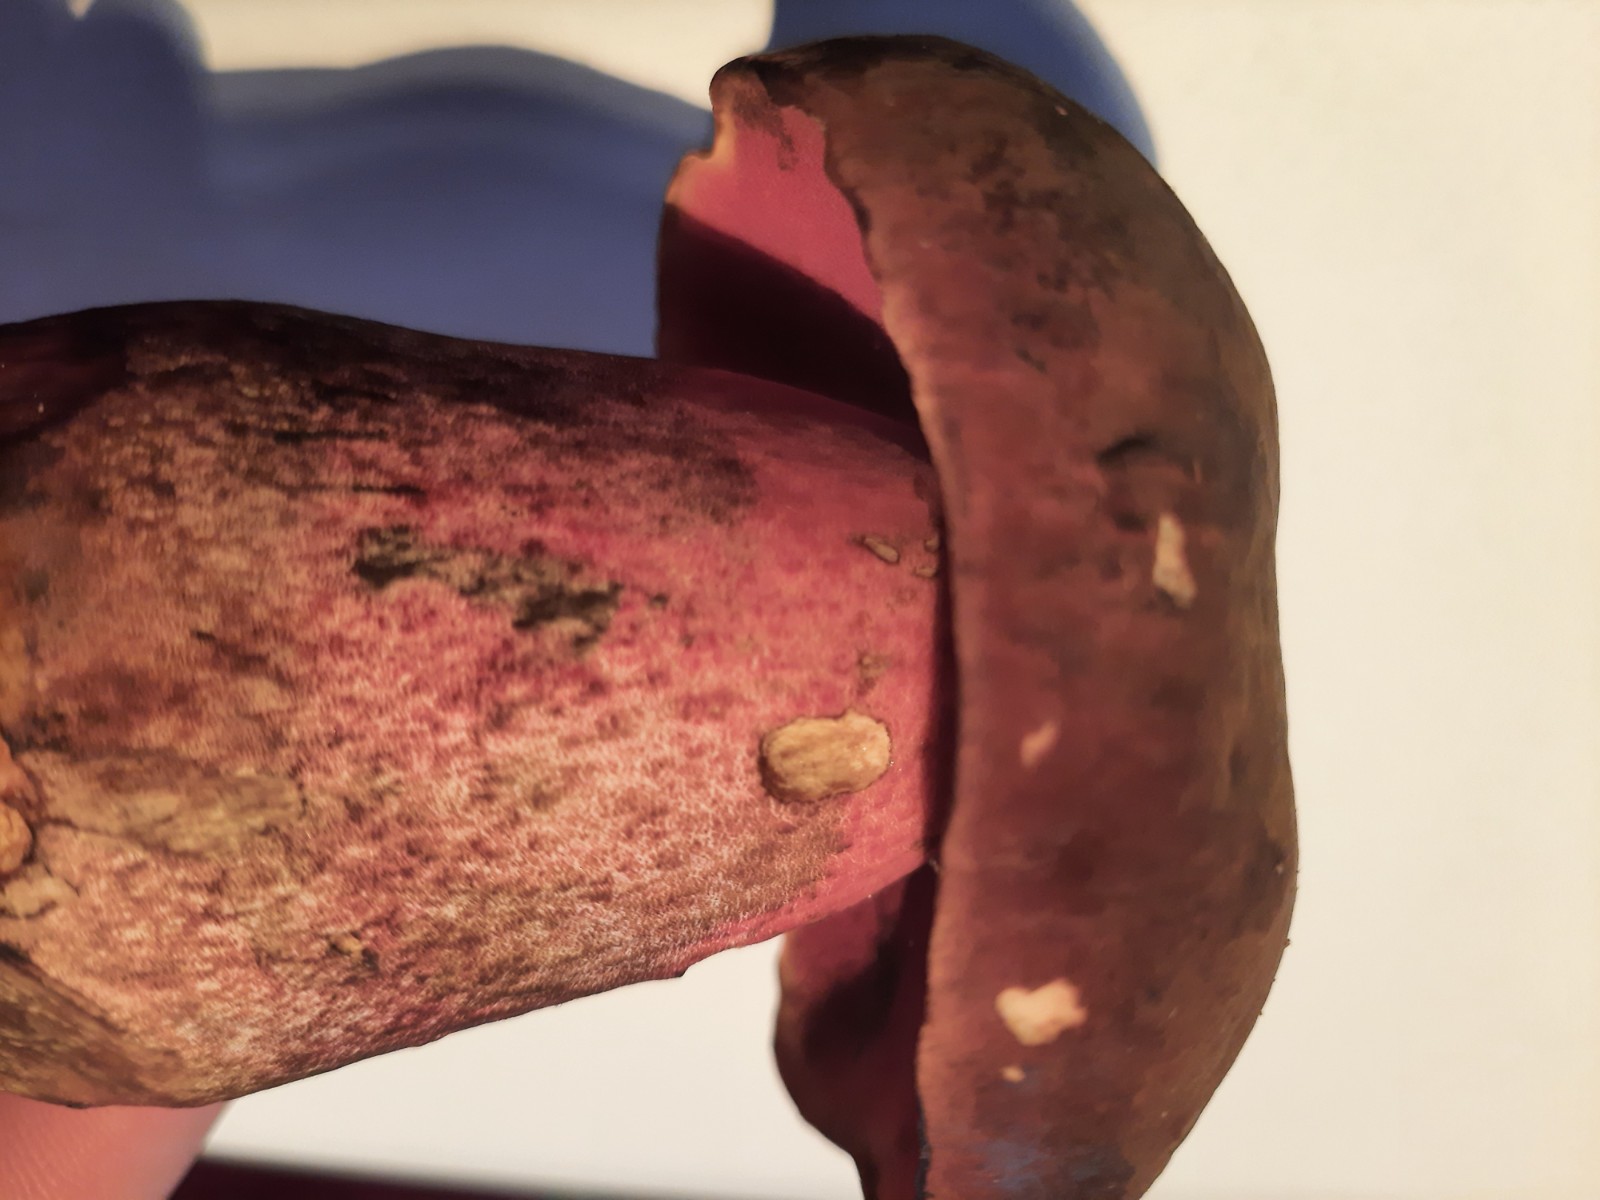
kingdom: Fungi
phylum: Basidiomycota
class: Agaricomycetes
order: Boletales
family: Boletaceae
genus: Neoboletus
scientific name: Neoboletus erythropus
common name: punktstokket indigorørhat
